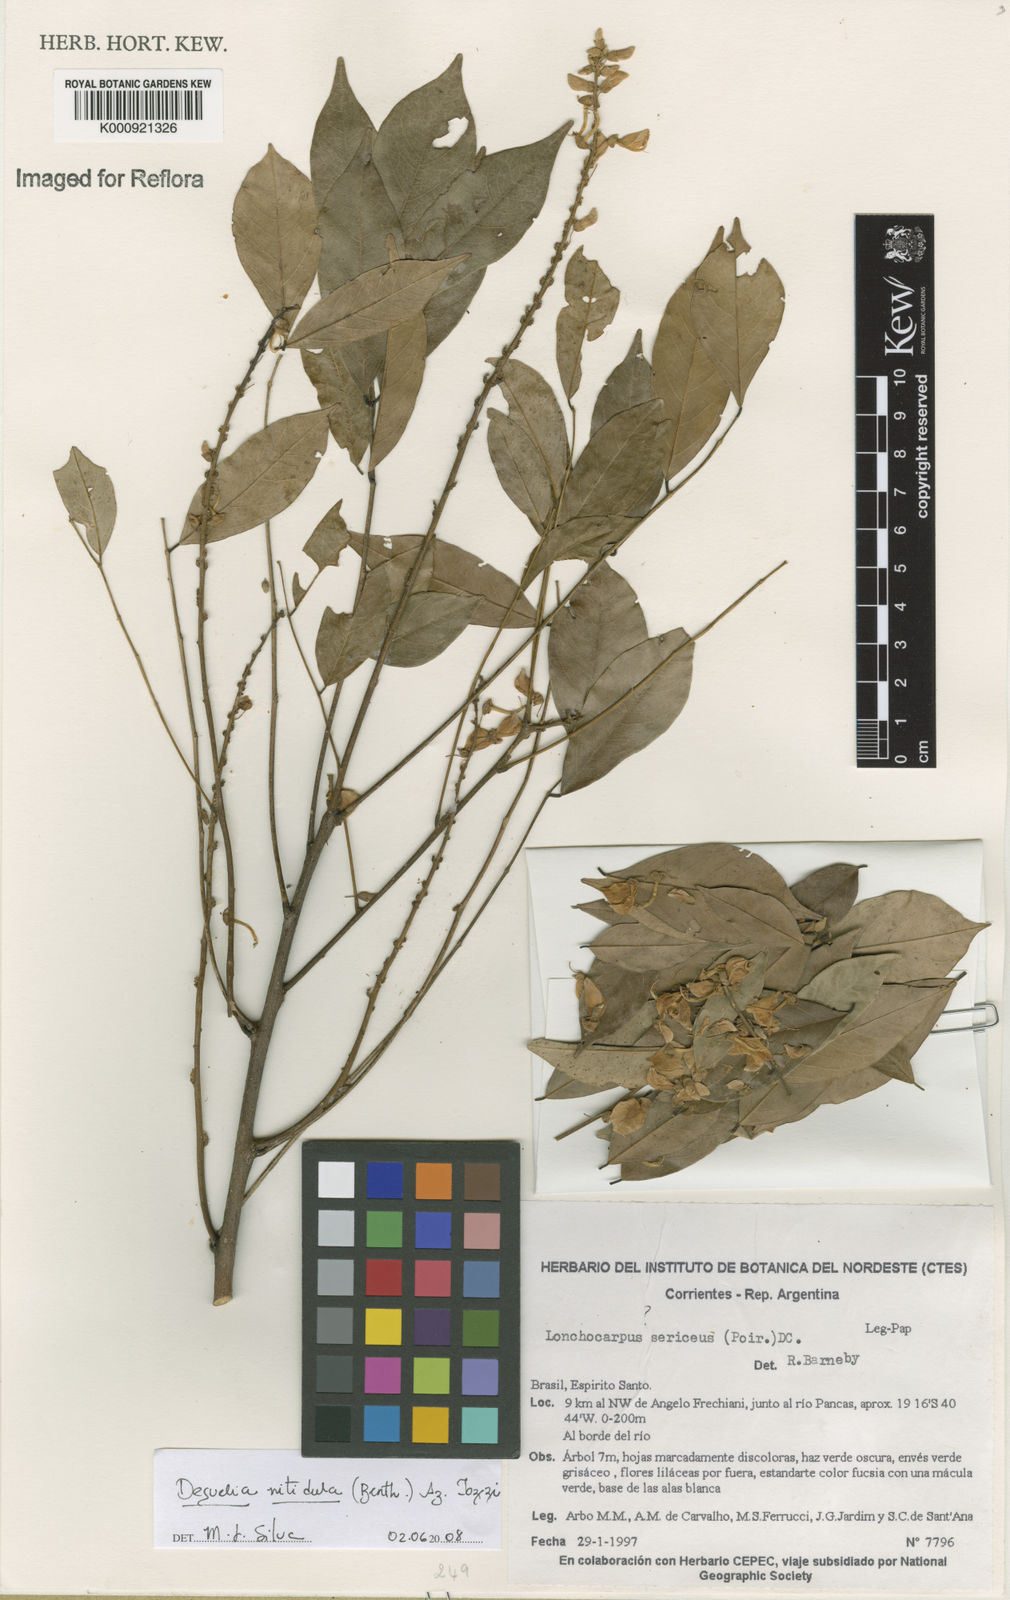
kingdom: Plantae
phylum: Tracheophyta
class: Magnoliopsida
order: Fabales
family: Fabaceae
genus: Deguelia
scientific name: Deguelia nitidula
